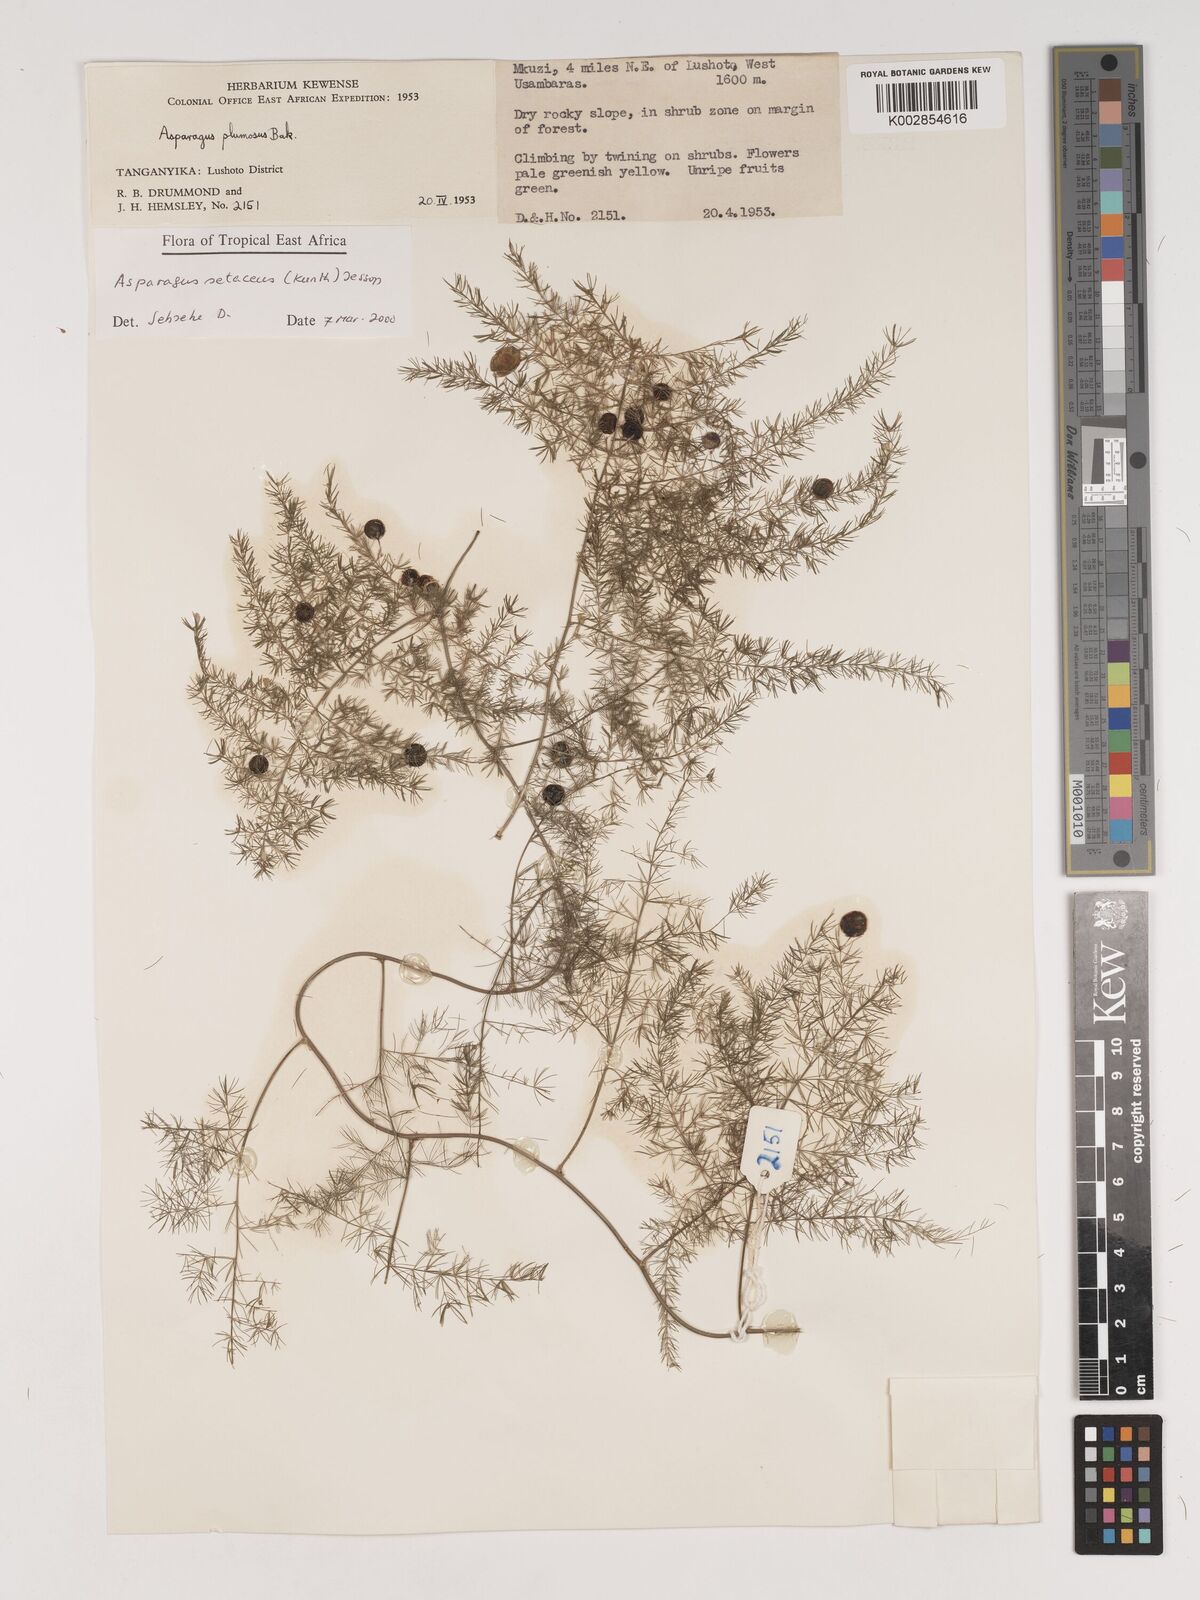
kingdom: Plantae
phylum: Tracheophyta
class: Liliopsida
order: Asparagales
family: Asparagaceae
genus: Asparagus
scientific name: Asparagus setaceus
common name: Common asparagus fern
